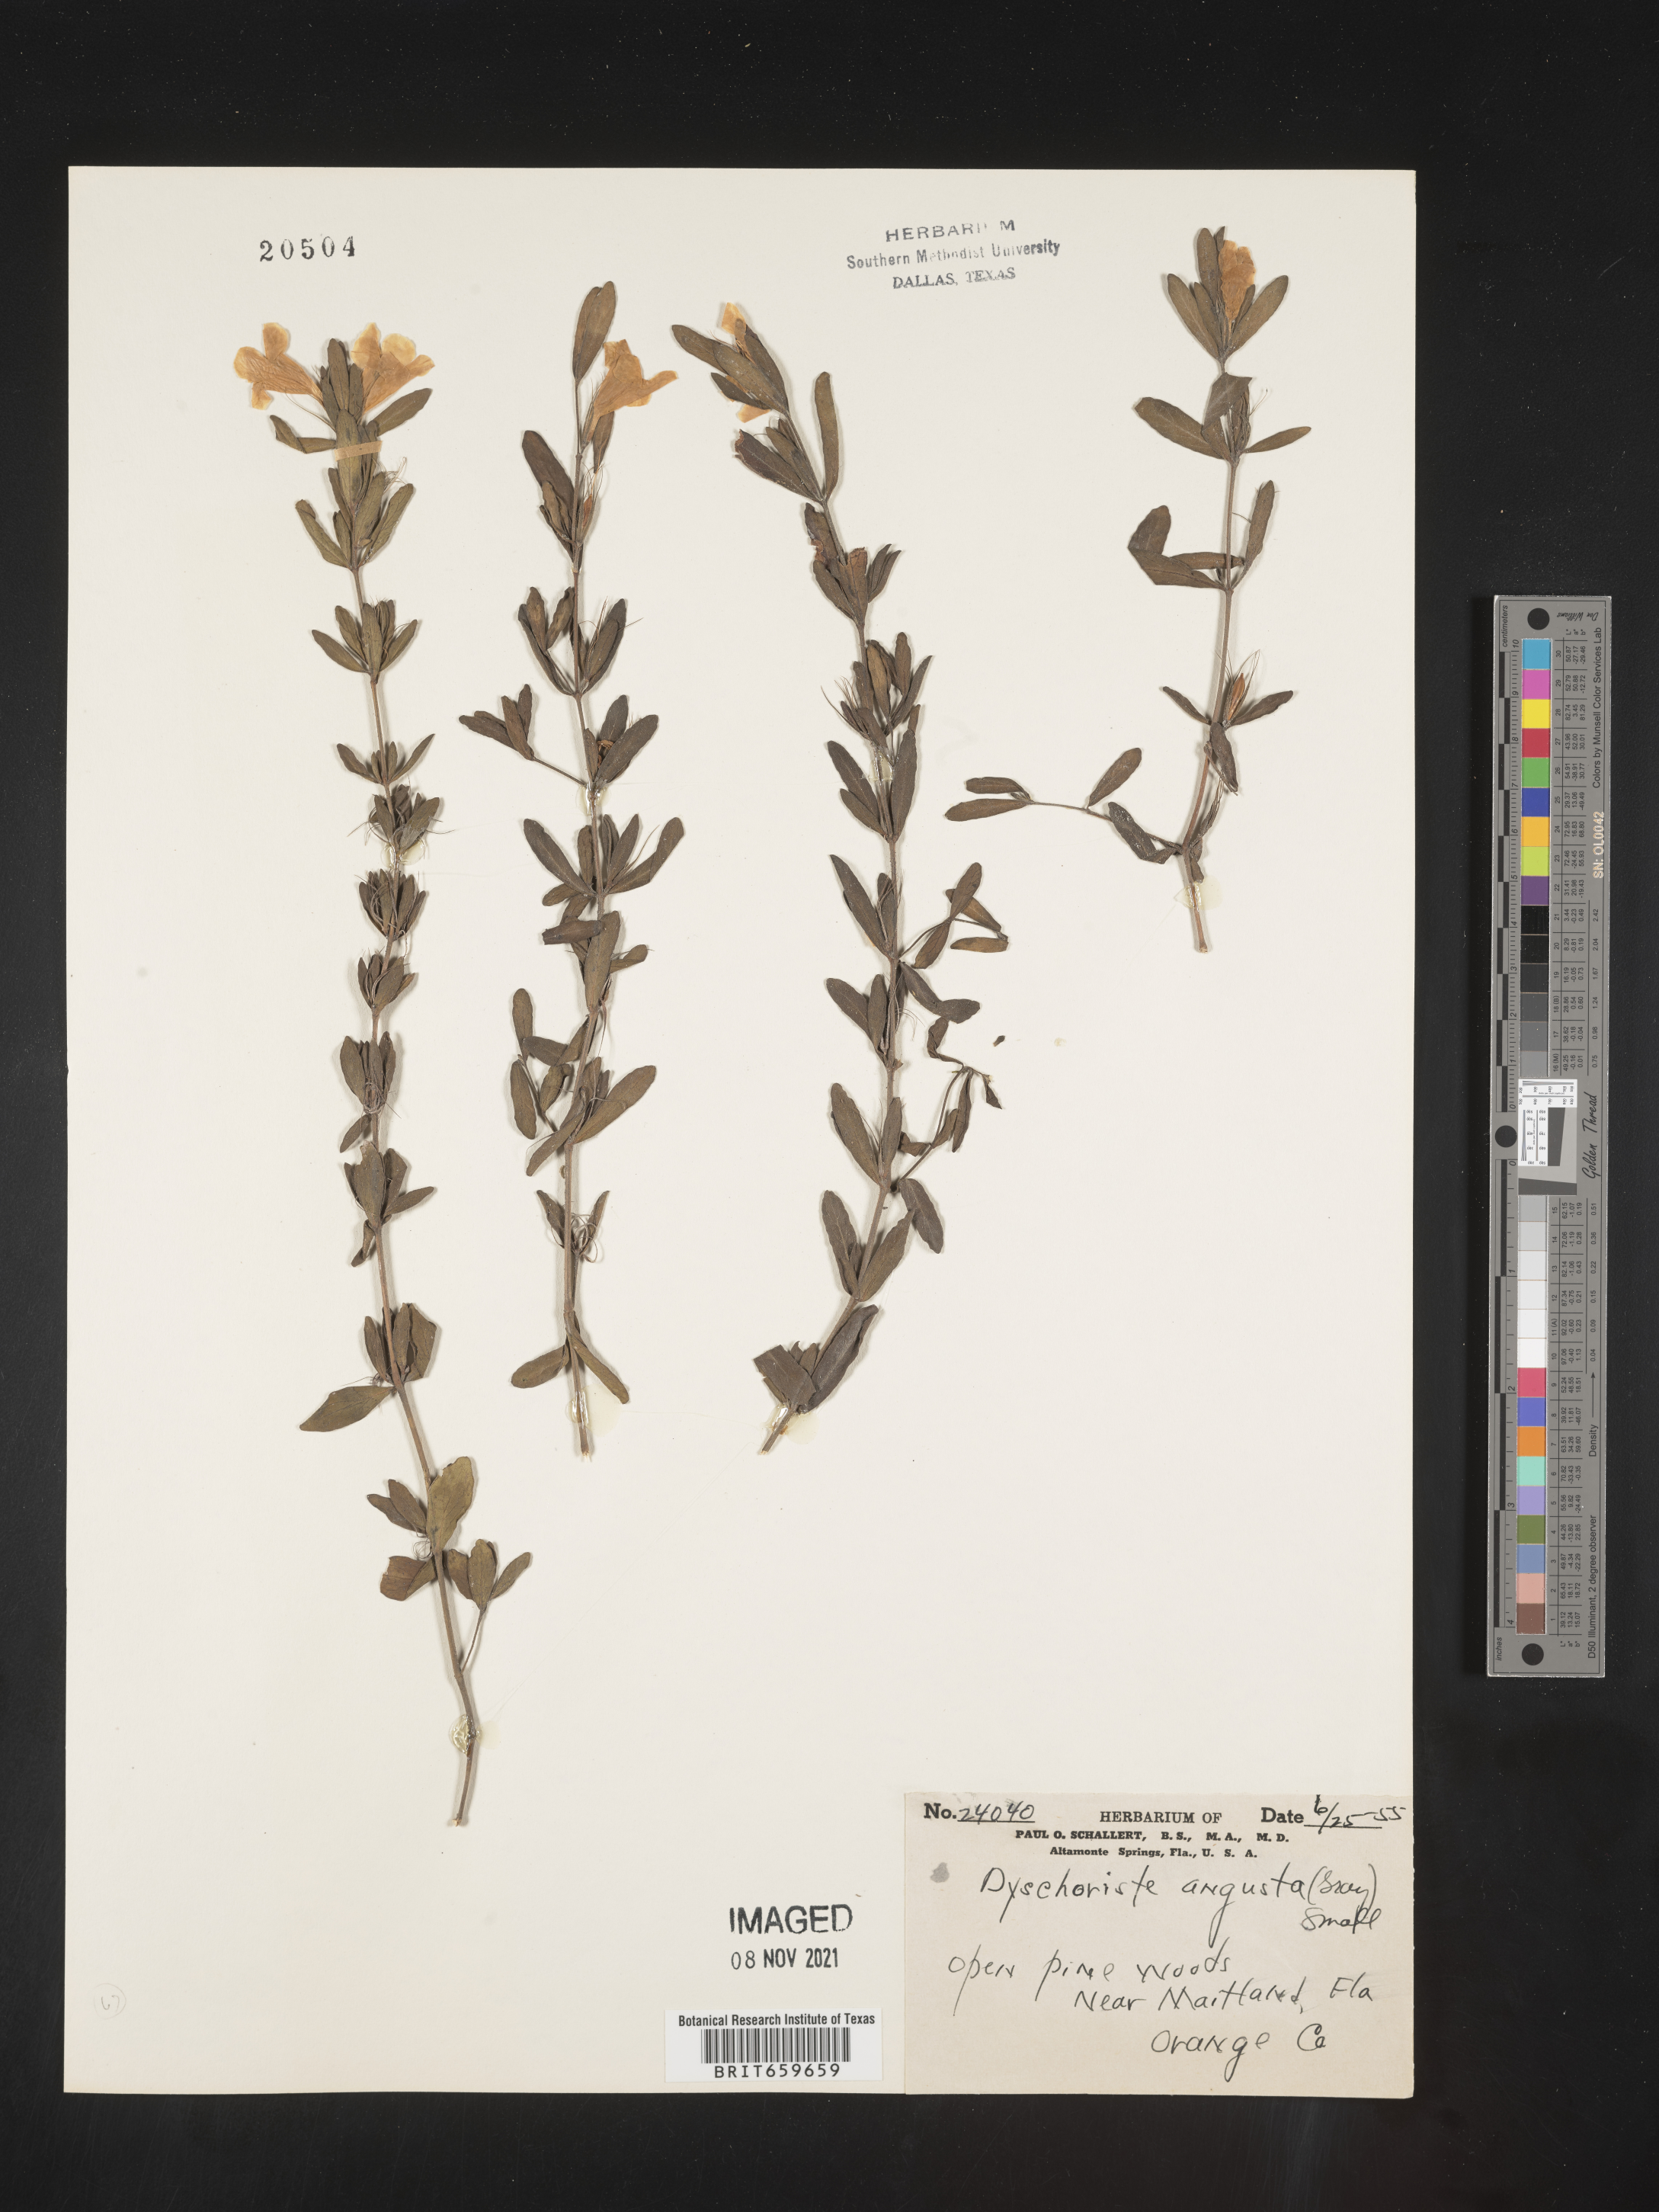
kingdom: Plantae
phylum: Tracheophyta
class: Magnoliopsida
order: Lamiales
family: Acanthaceae
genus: Dyschoriste
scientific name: Dyschoriste angusta
